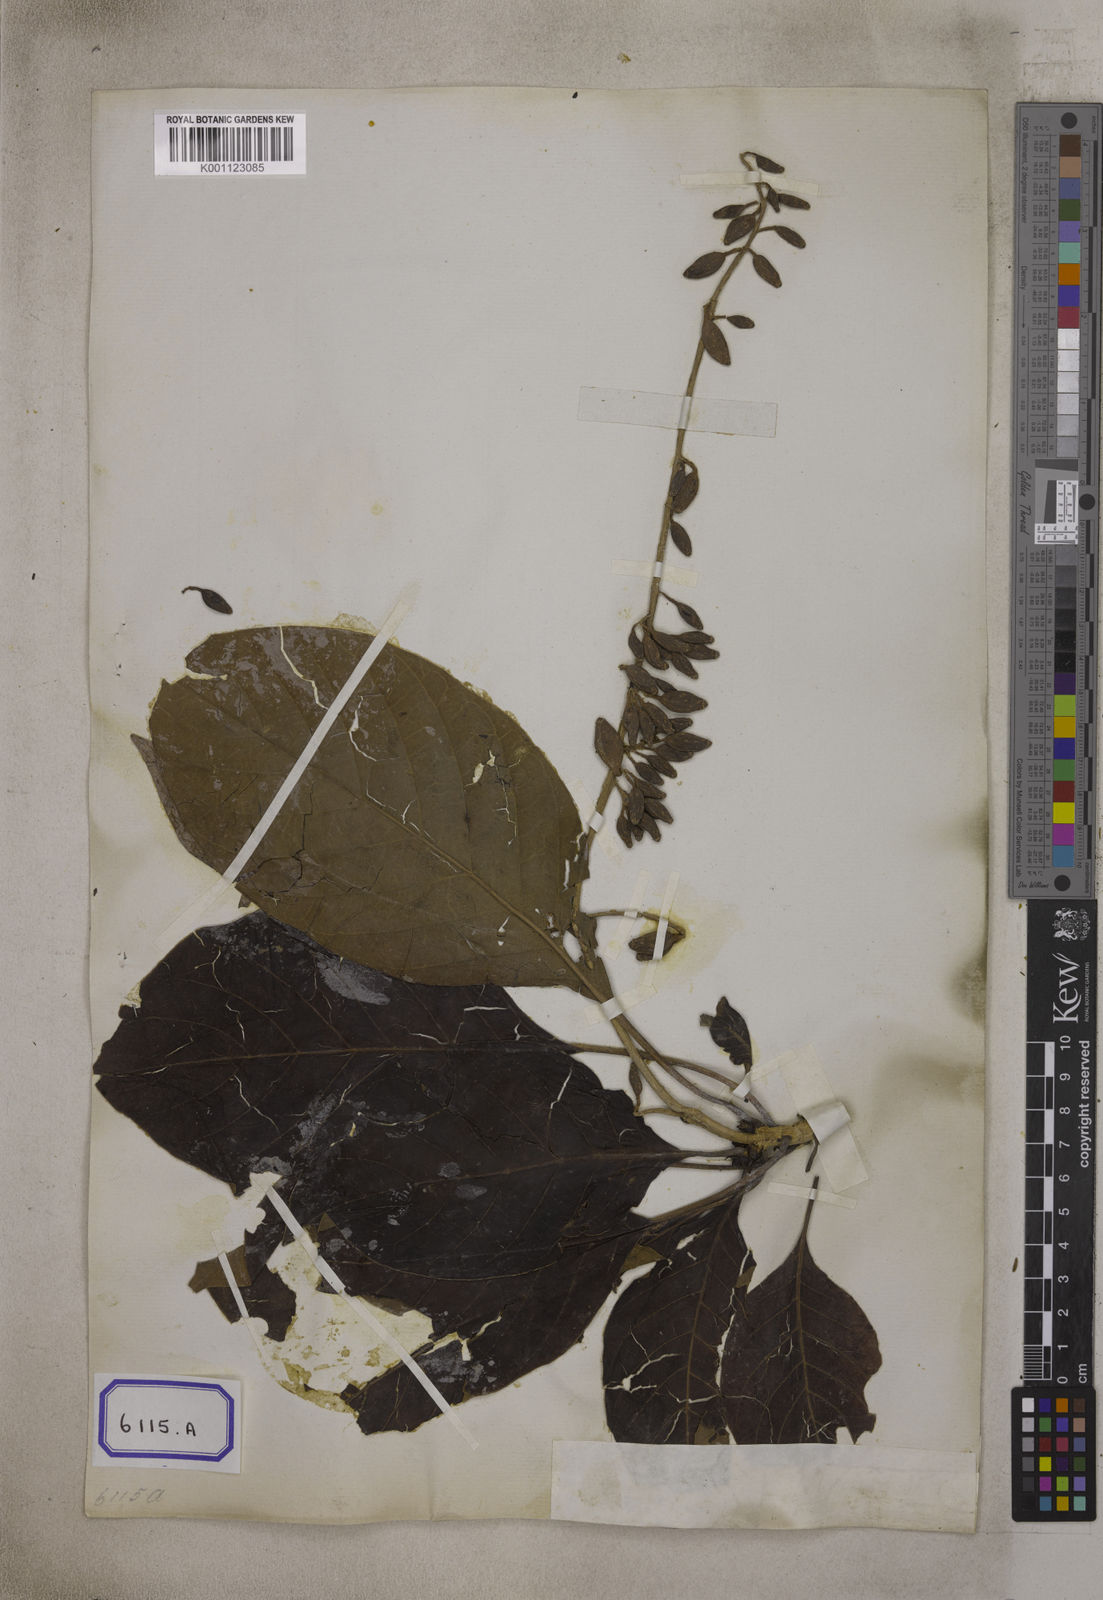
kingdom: Plantae
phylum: Tracheophyta
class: Magnoliopsida
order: Gentianales
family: Rubiaceae
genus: Hymenodictyon
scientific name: Hymenodictyon flaccidum
